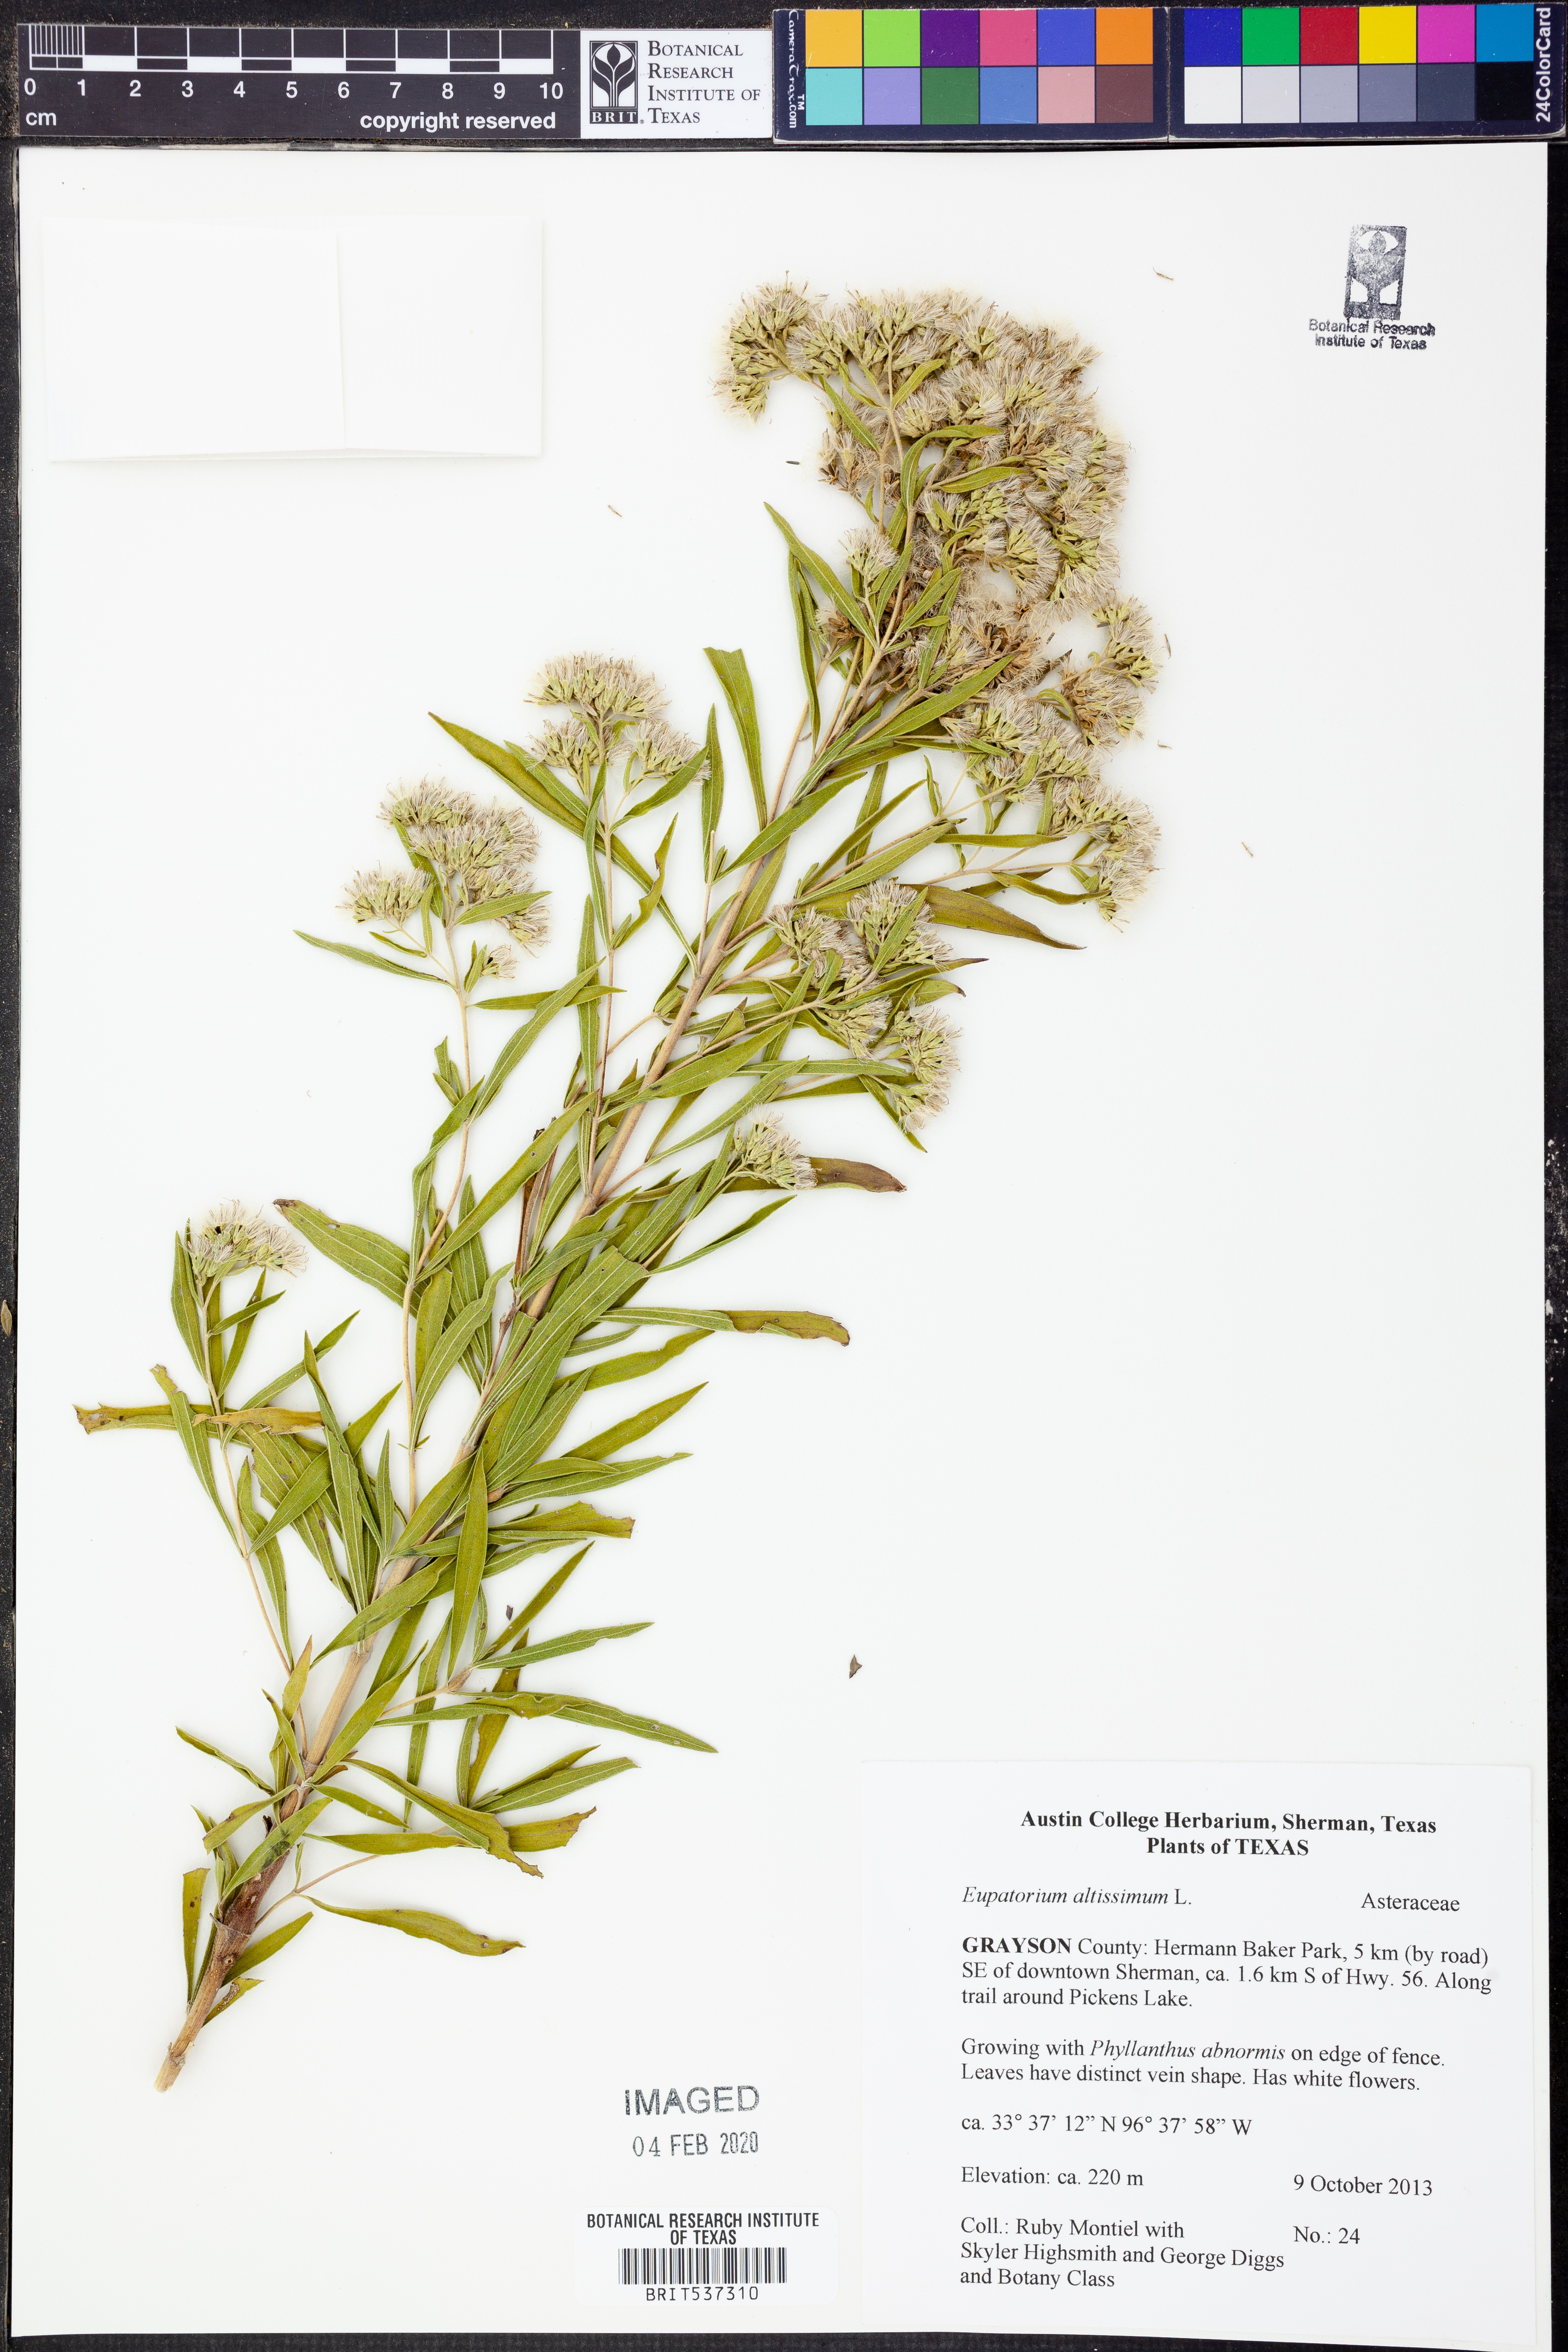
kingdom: Plantae
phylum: Tracheophyta
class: Magnoliopsida
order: Asterales
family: Asteraceae
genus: Eupatorium
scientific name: Eupatorium altissimum
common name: Tall thoroughwort
